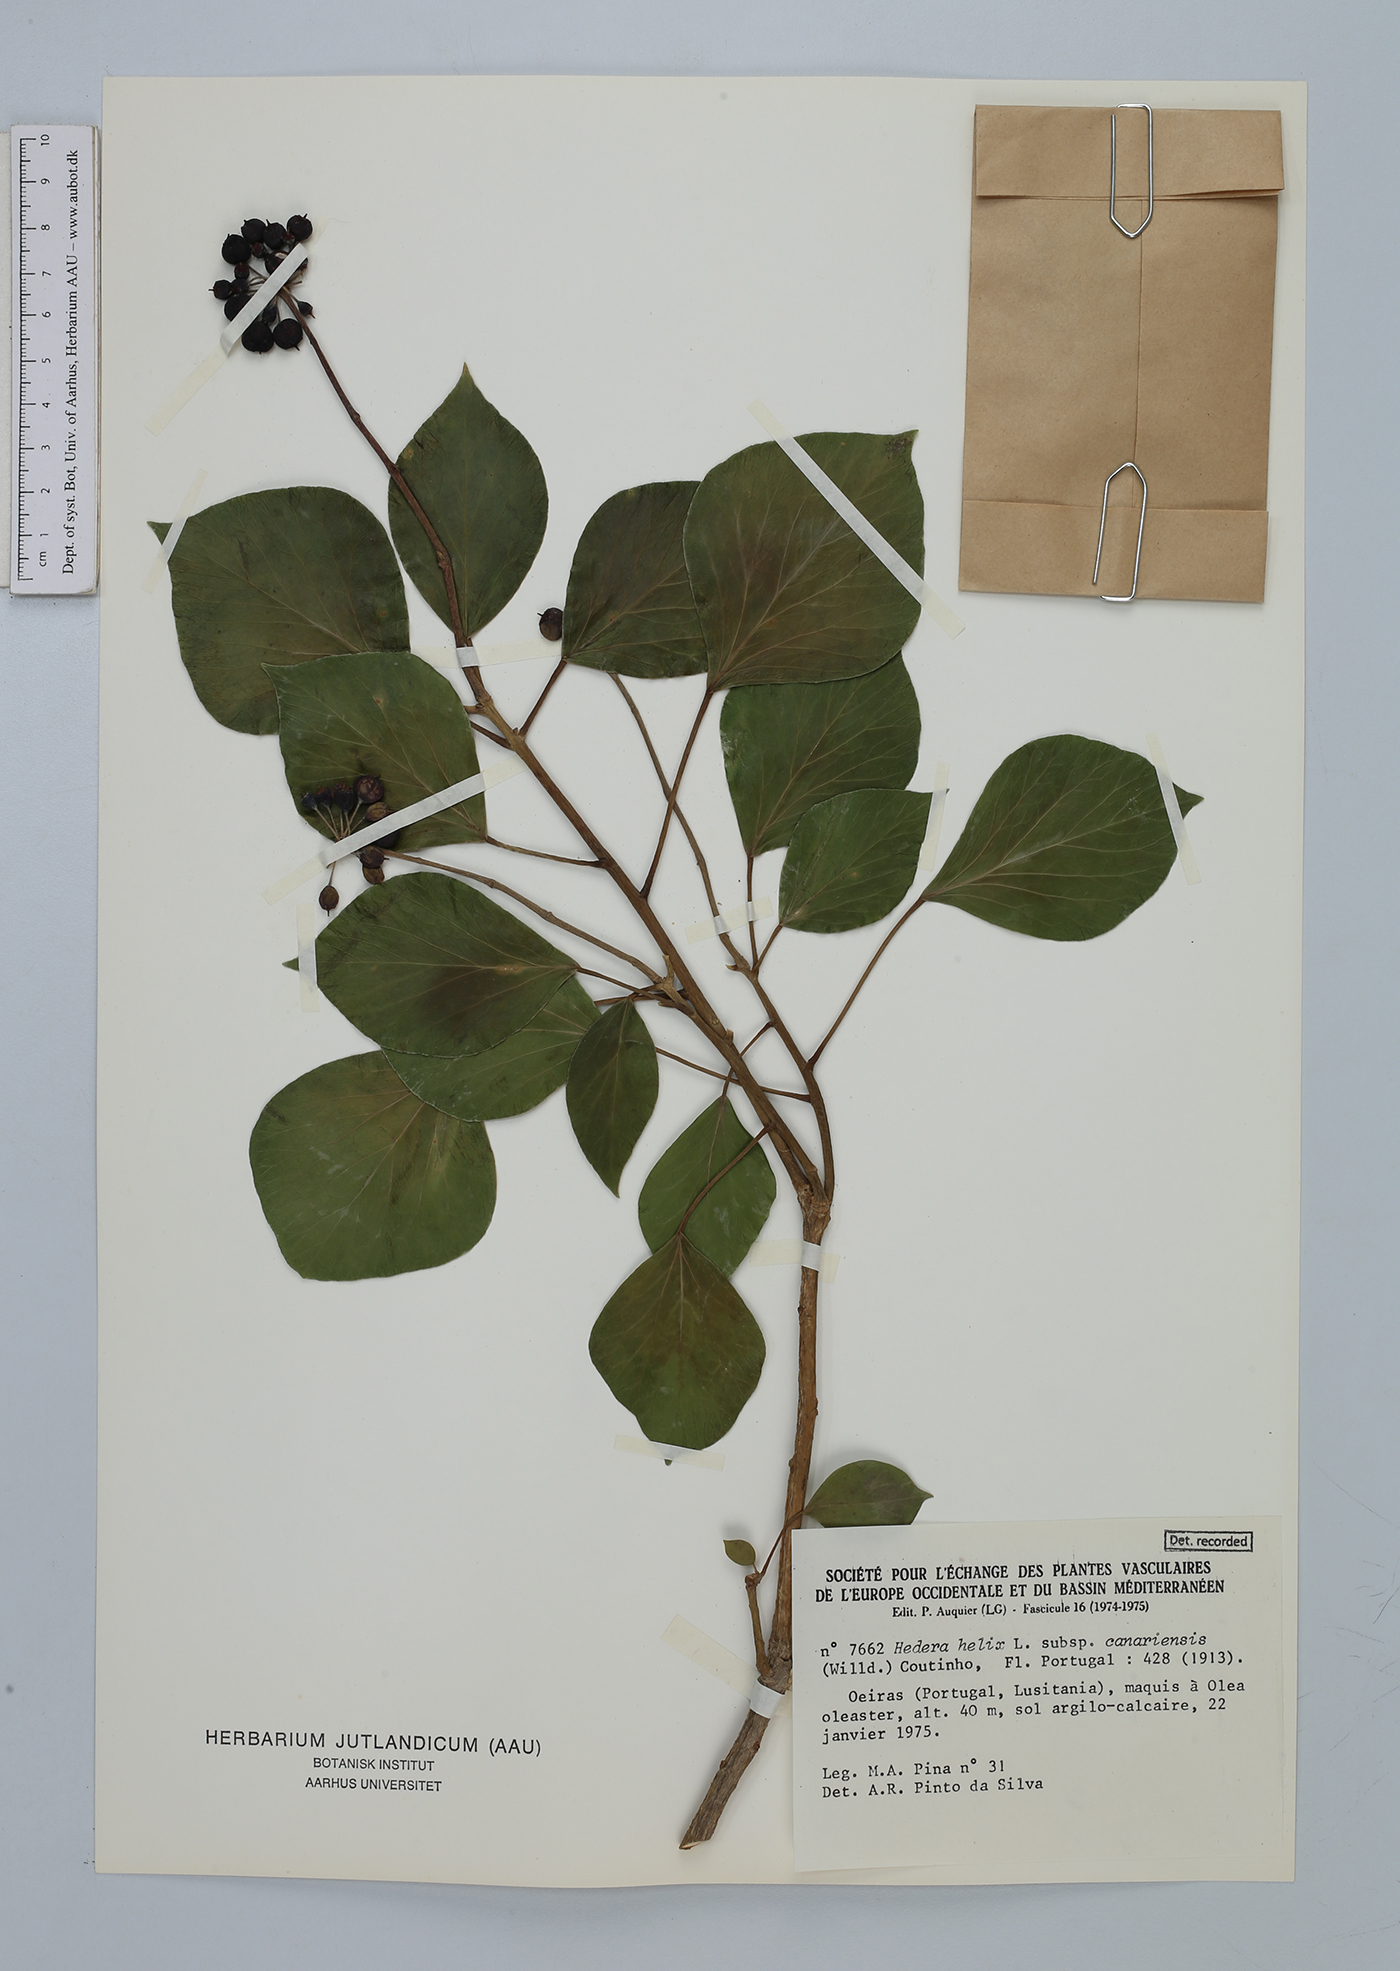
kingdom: Plantae
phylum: Tracheophyta
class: Magnoliopsida
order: Apiales
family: Araliaceae
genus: Hedera
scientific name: Hedera helix
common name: Ivy
